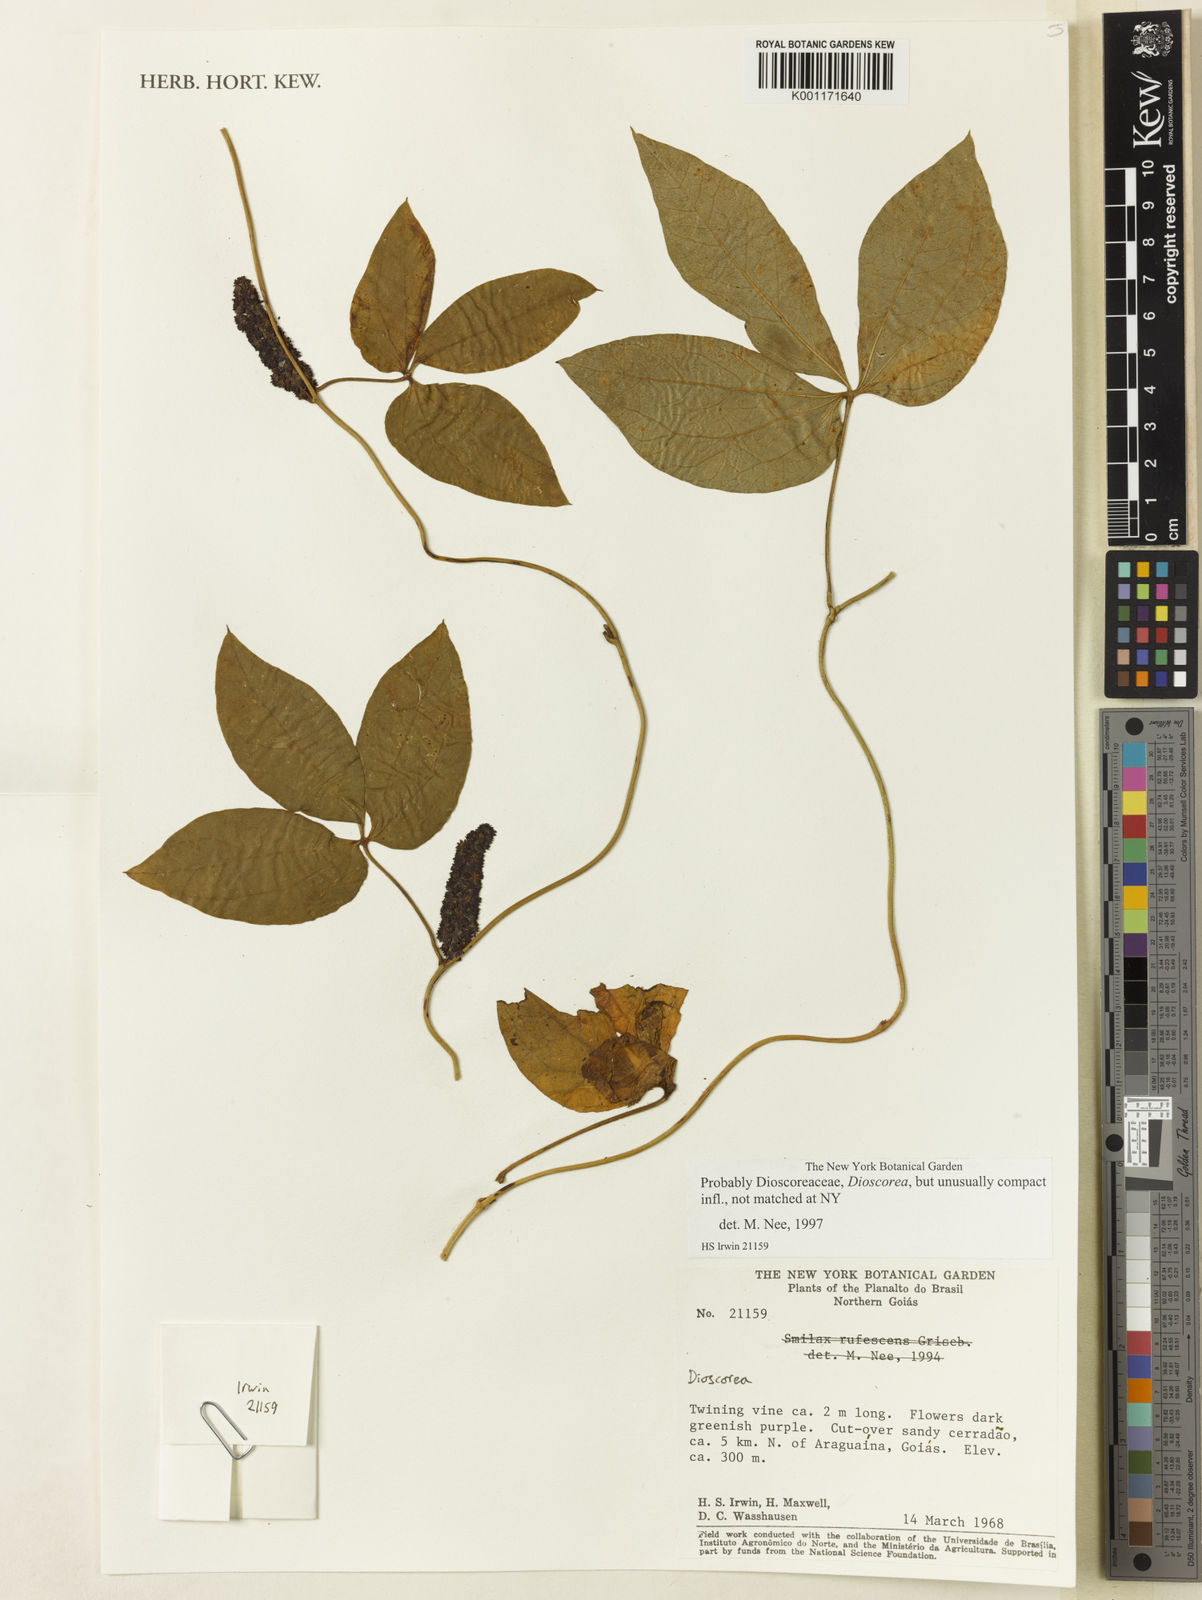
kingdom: Plantae
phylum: Tracheophyta
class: Liliopsida
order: Dioscoreales
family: Dioscoreaceae
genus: Dioscorea
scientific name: Dioscorea argyrogyna
